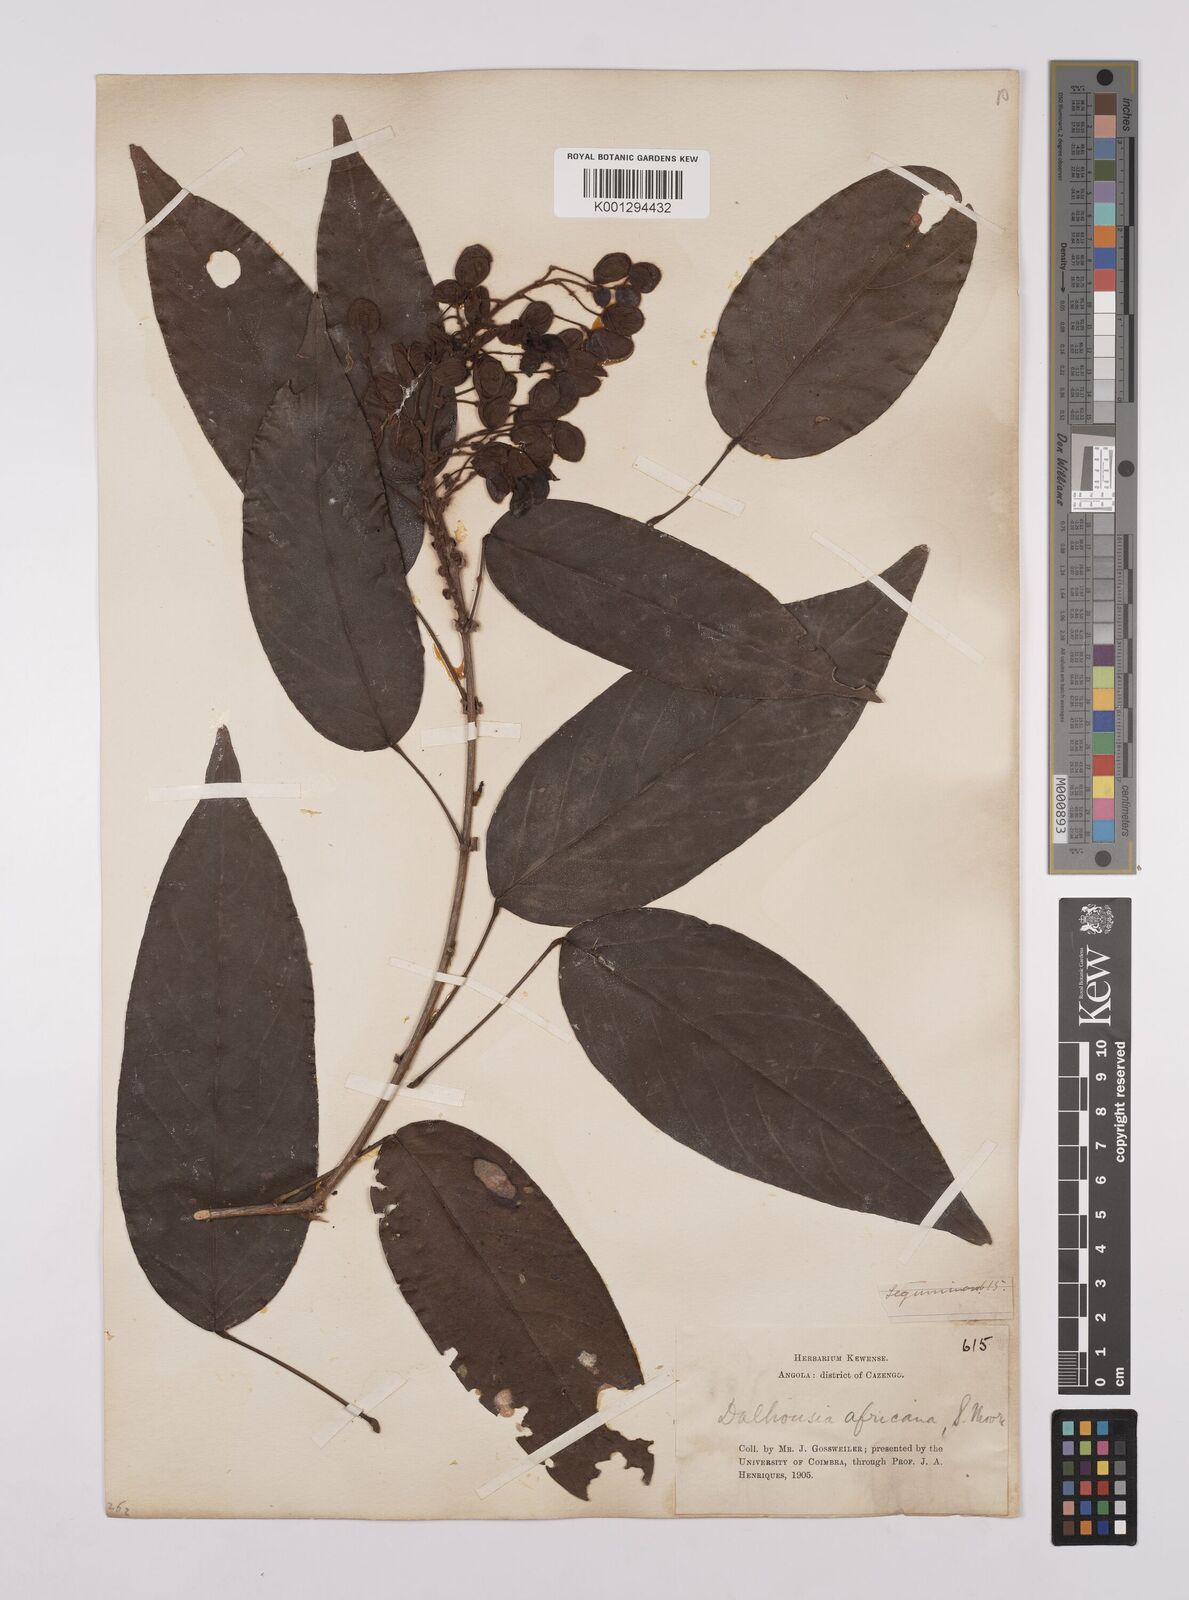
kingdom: Plantae
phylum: Tracheophyta
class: Magnoliopsida
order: Fabales
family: Fabaceae
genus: Dalhousiea
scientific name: Dalhousiea africana
